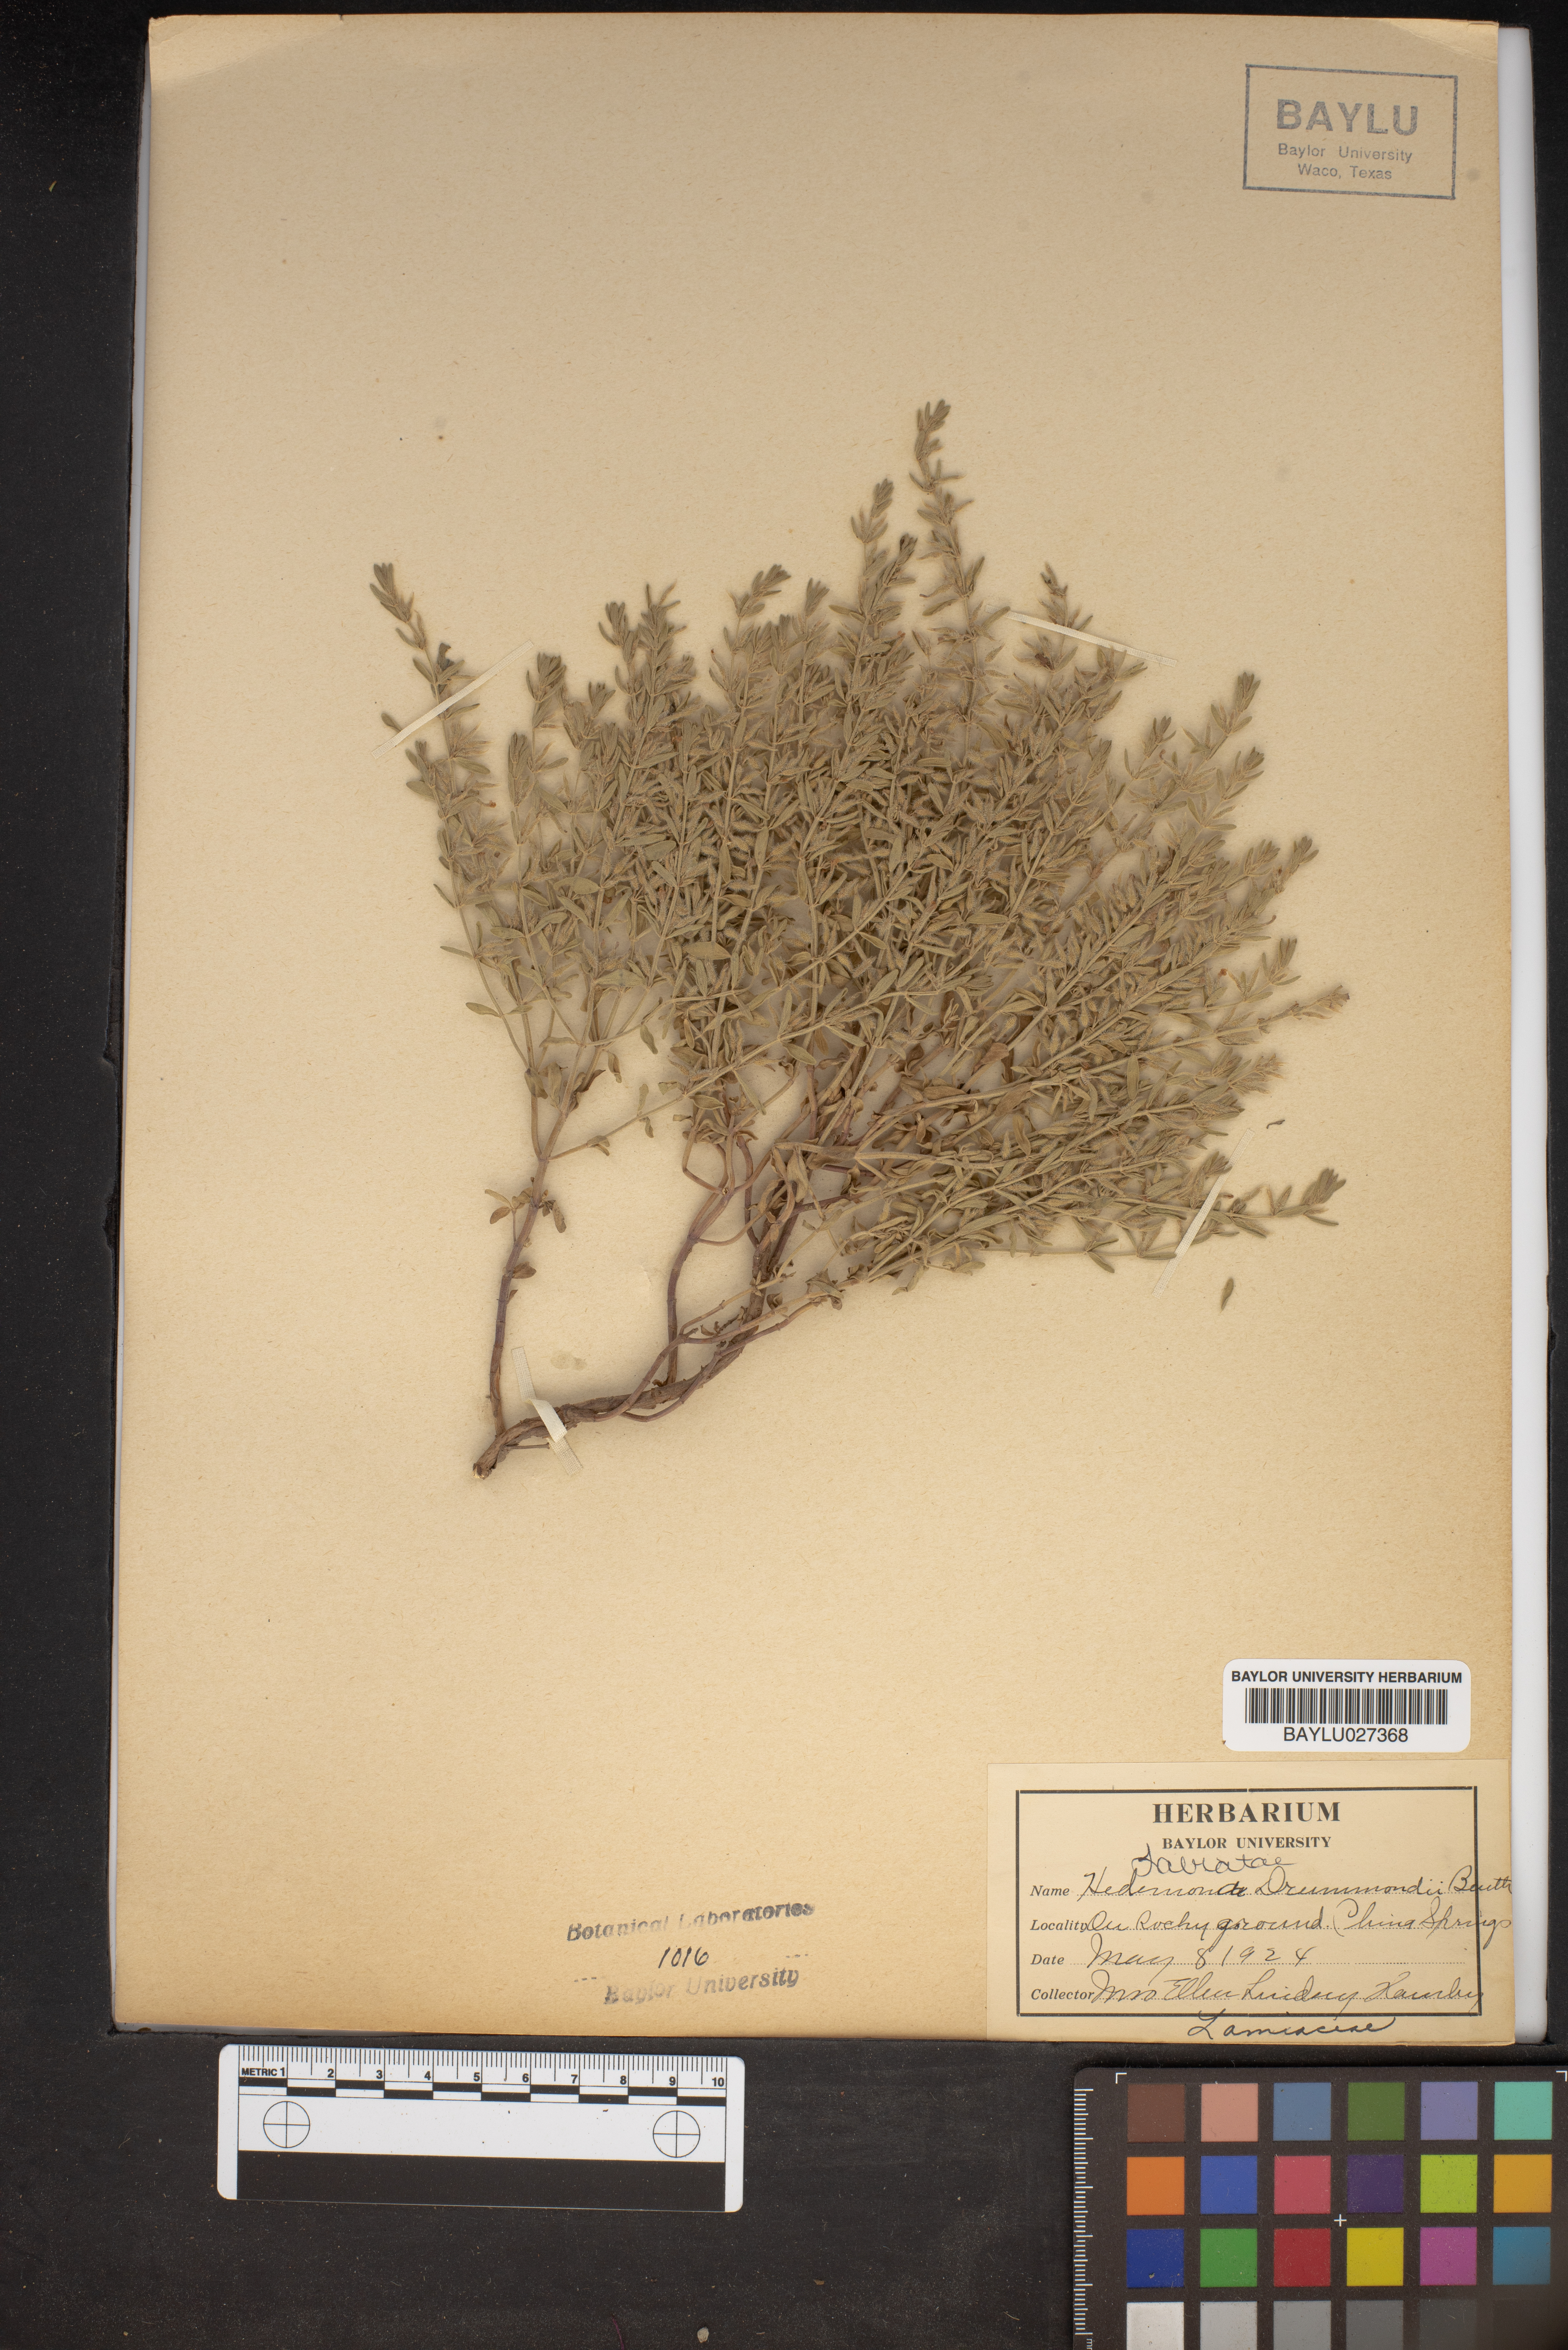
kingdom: Plantae
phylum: Tracheophyta
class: Magnoliopsida
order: Lamiales
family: Lamiaceae
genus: Hedeoma
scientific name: Hedeoma drummondii
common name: New mexico pennyroyal
